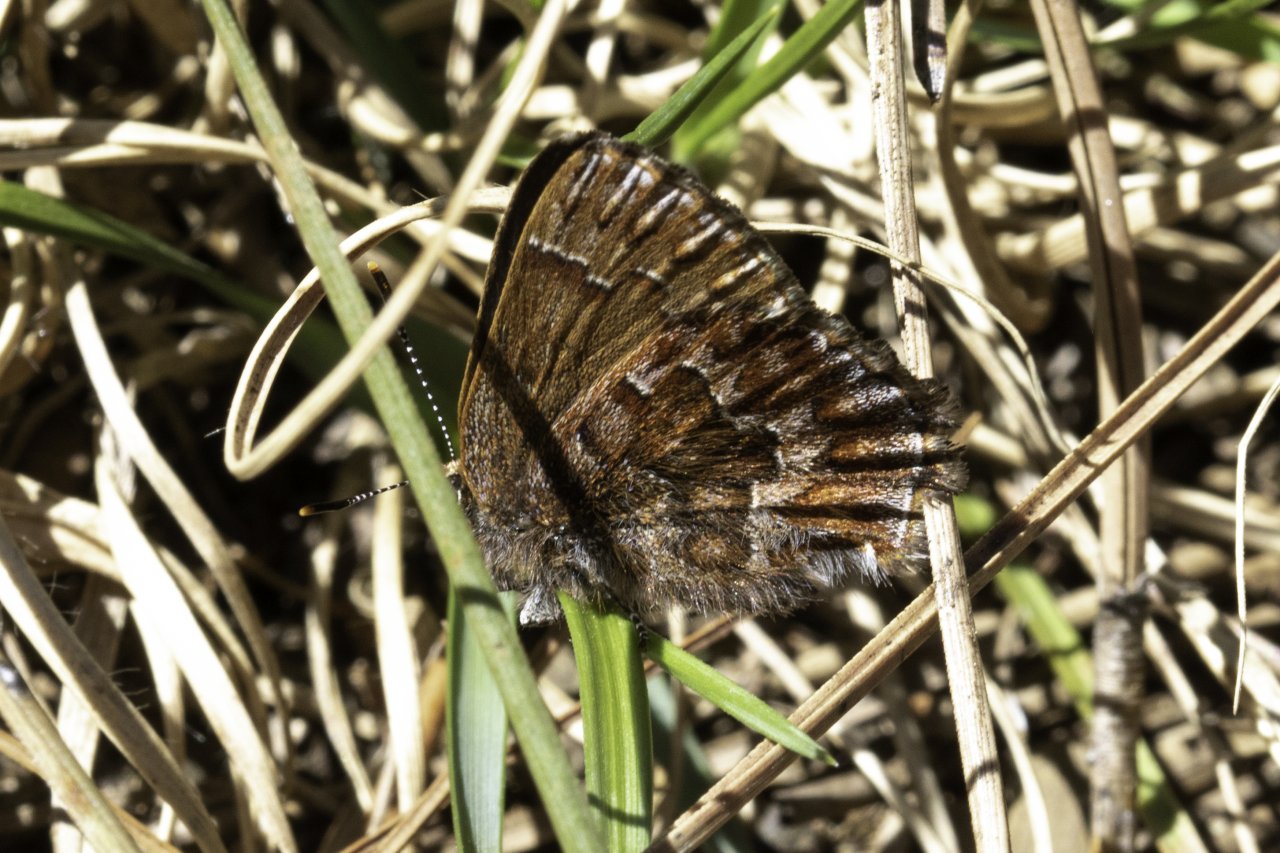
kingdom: Animalia
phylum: Arthropoda
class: Insecta
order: Lepidoptera
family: Lycaenidae
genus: Incisalia
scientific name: Incisalia niphon
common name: Eastern Pine Elfin
